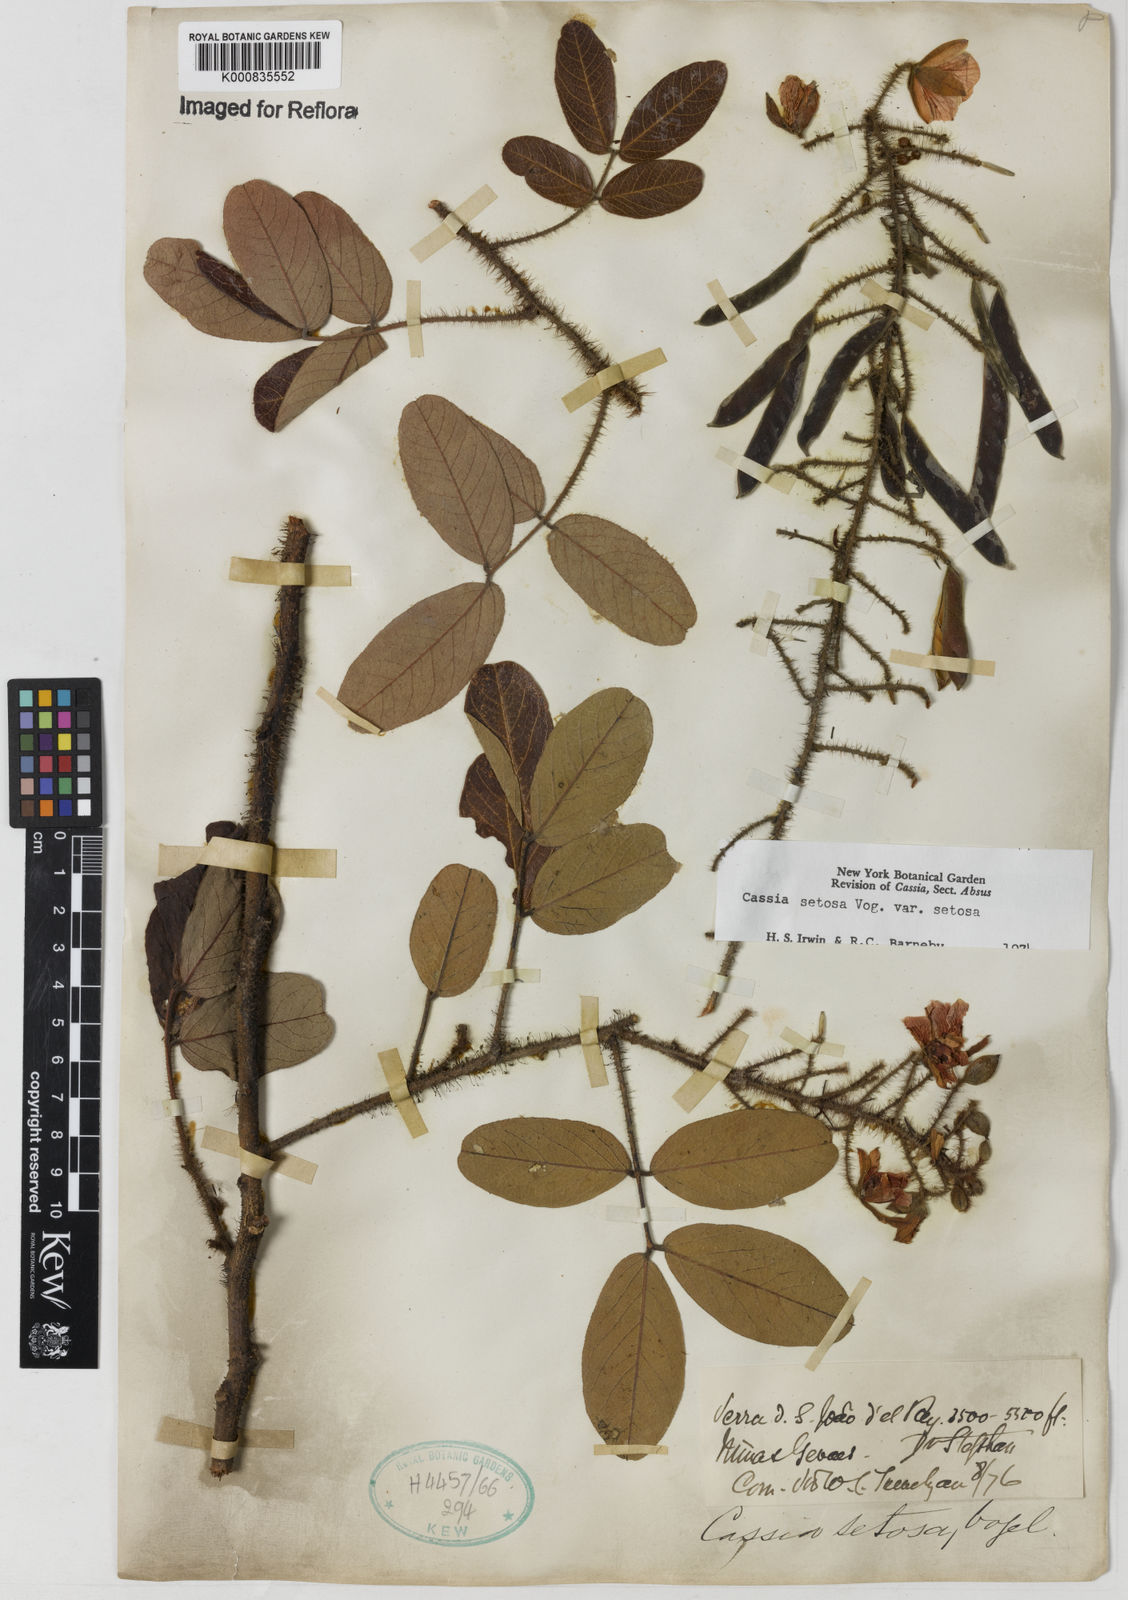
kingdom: Plantae
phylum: Tracheophyta
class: Magnoliopsida
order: Fabales
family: Fabaceae
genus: Chamaecrista
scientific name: Chamaecrista setosa
